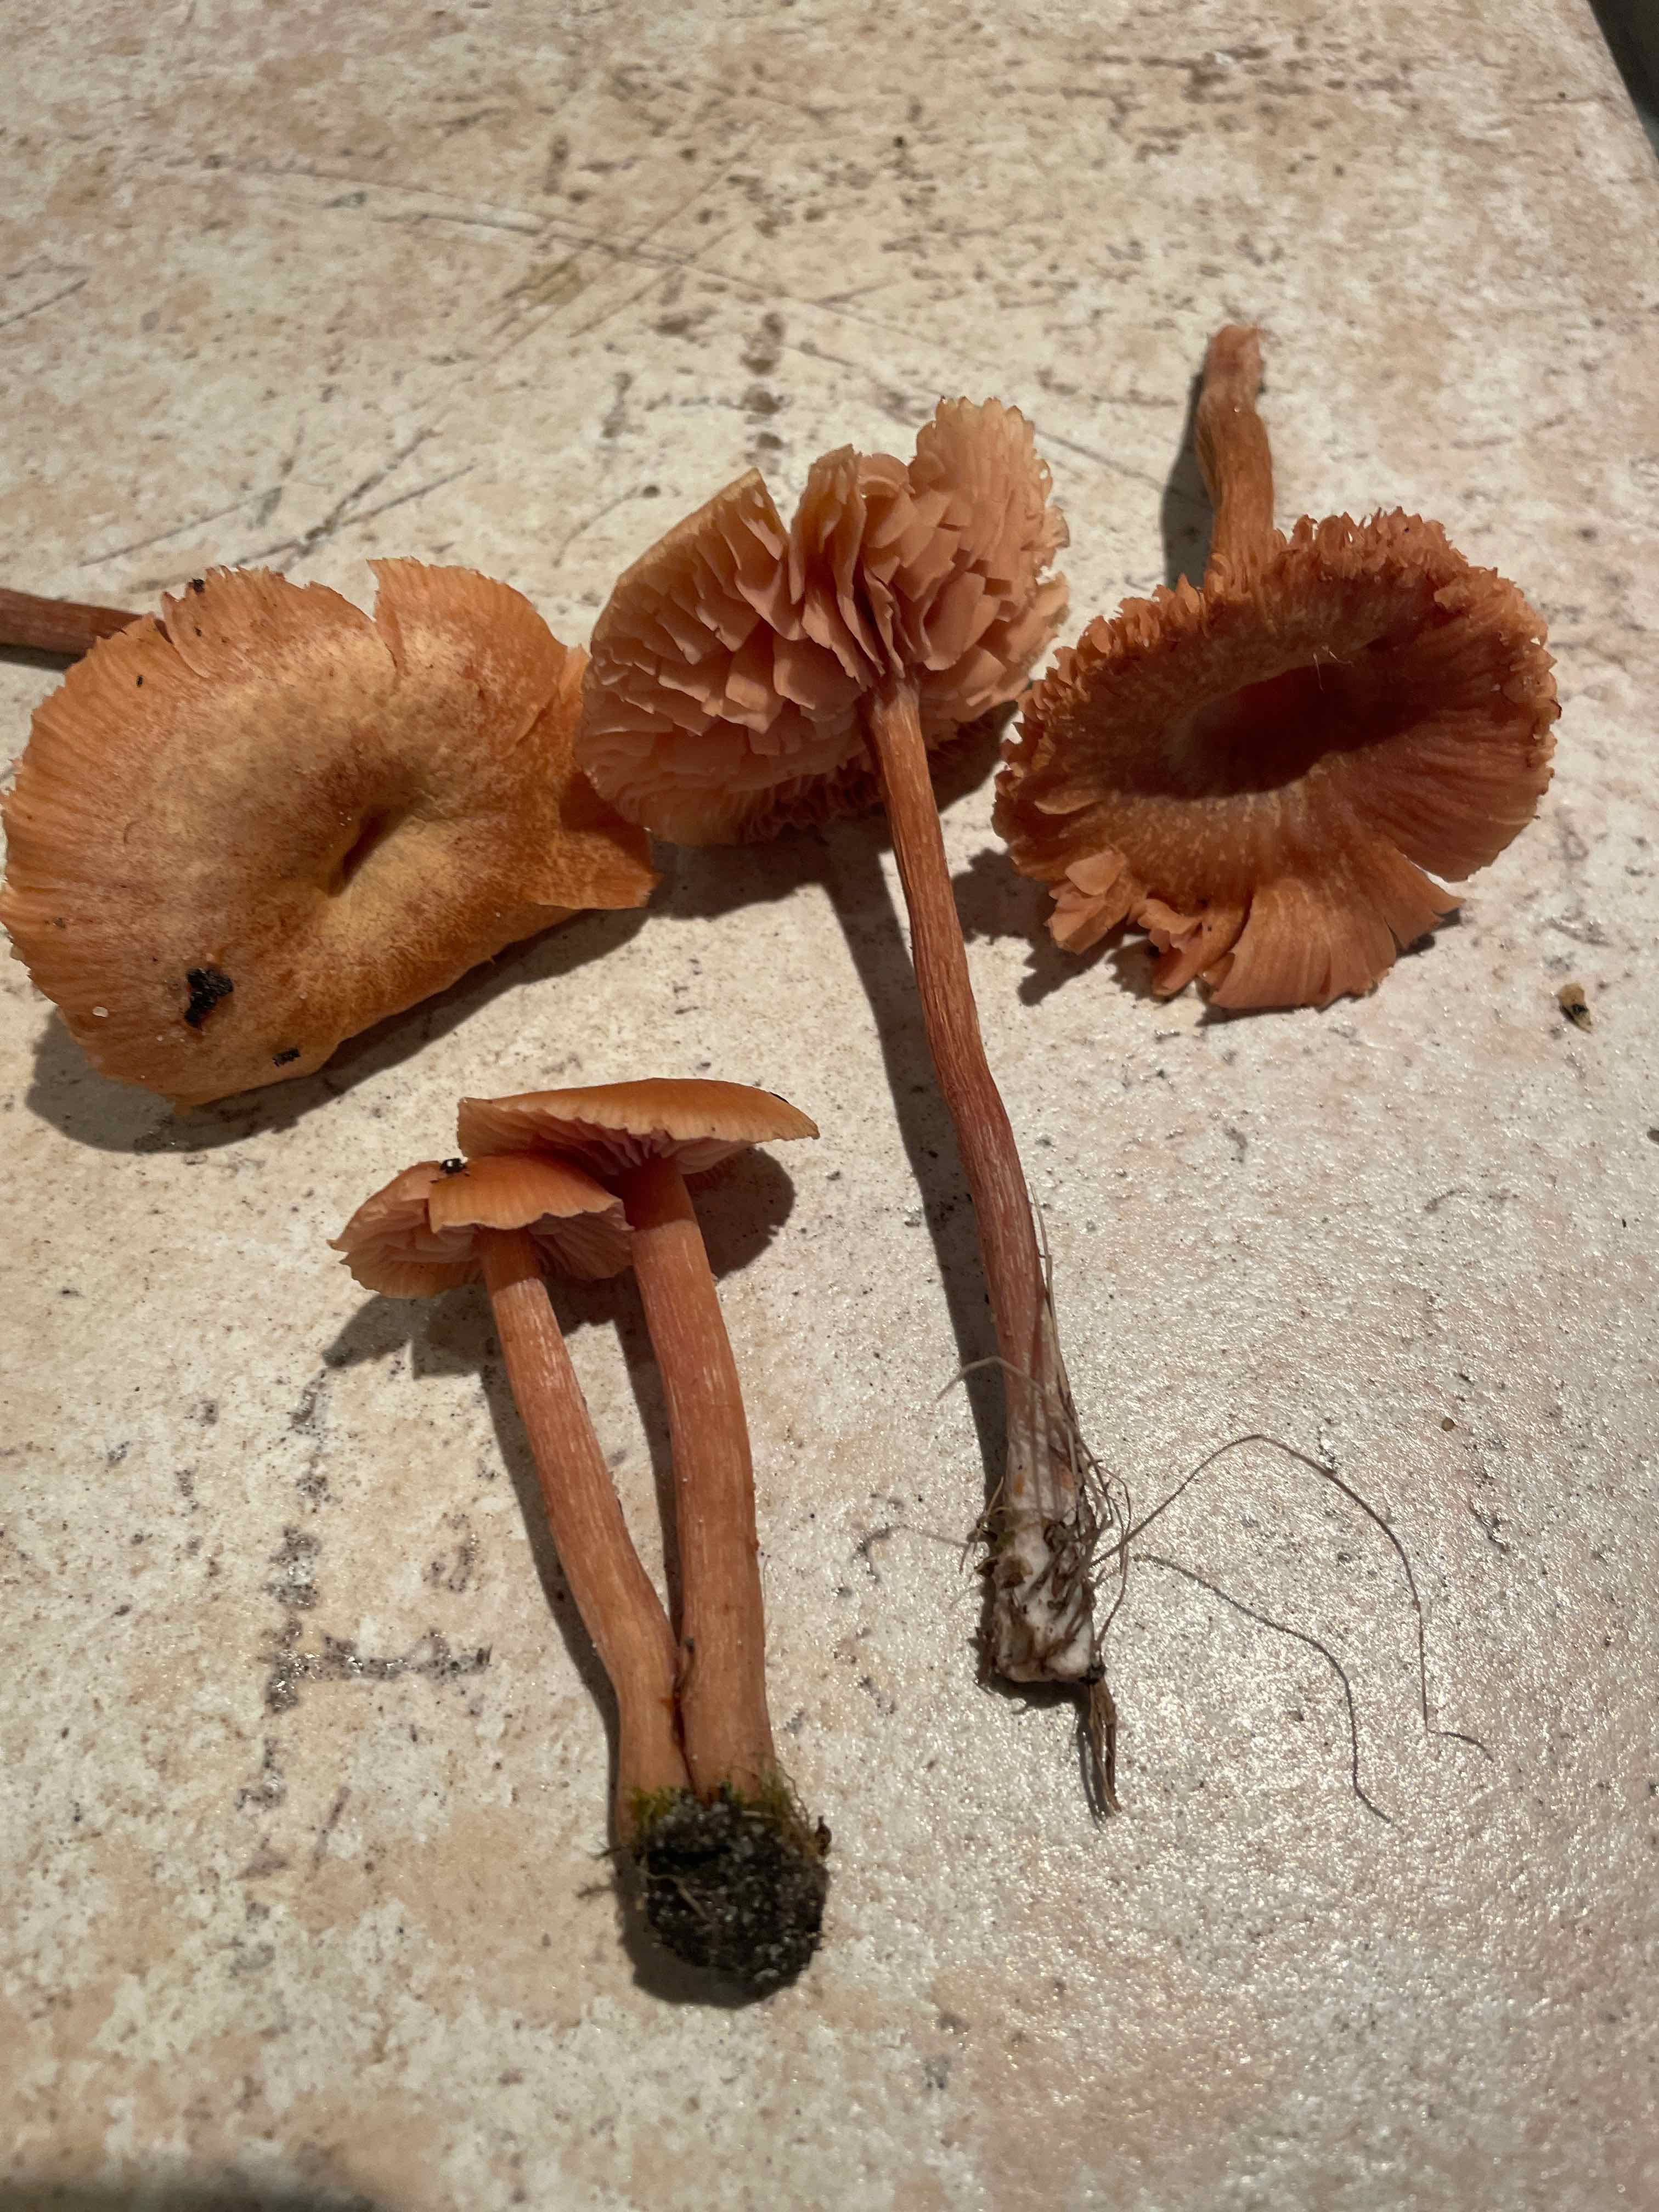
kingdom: Fungi
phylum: Basidiomycota
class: Agaricomycetes
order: Agaricales
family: Hydnangiaceae
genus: Laccaria
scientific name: Laccaria
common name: ametysthat
